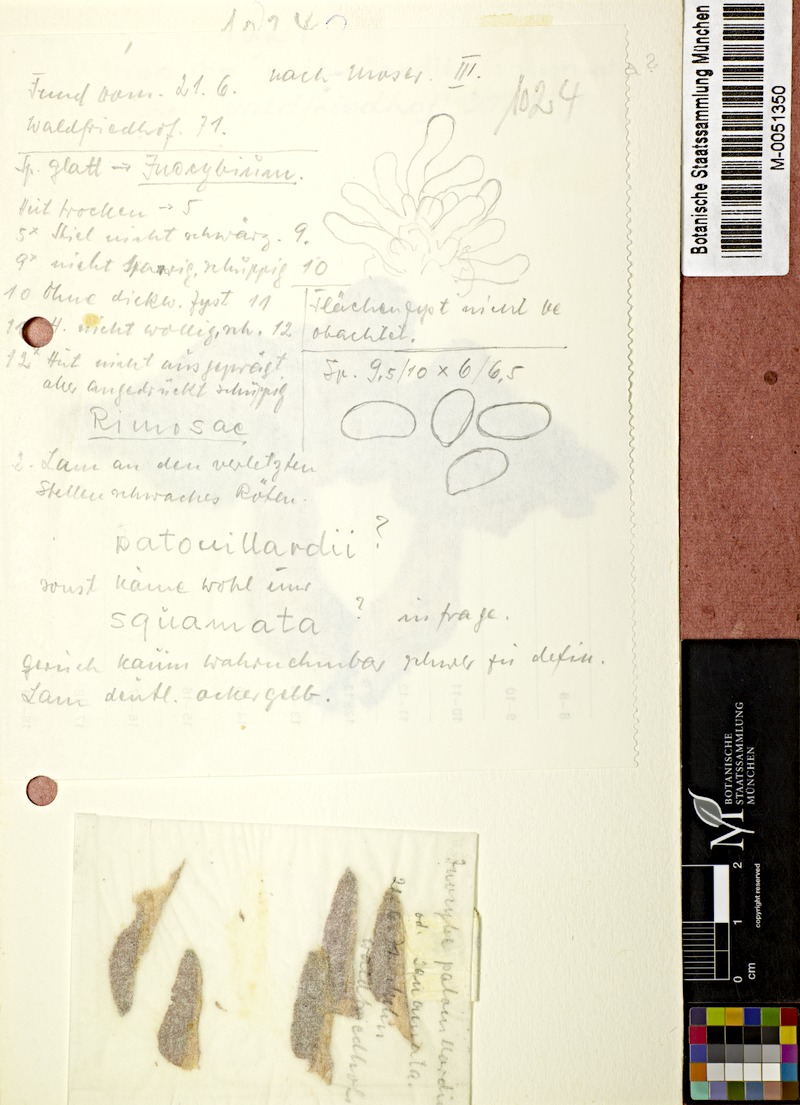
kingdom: Fungi
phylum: Basidiomycota
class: Agaricomycetes
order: Agaricales
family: Inocybaceae
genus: Inosperma
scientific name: Inosperma erubescens
